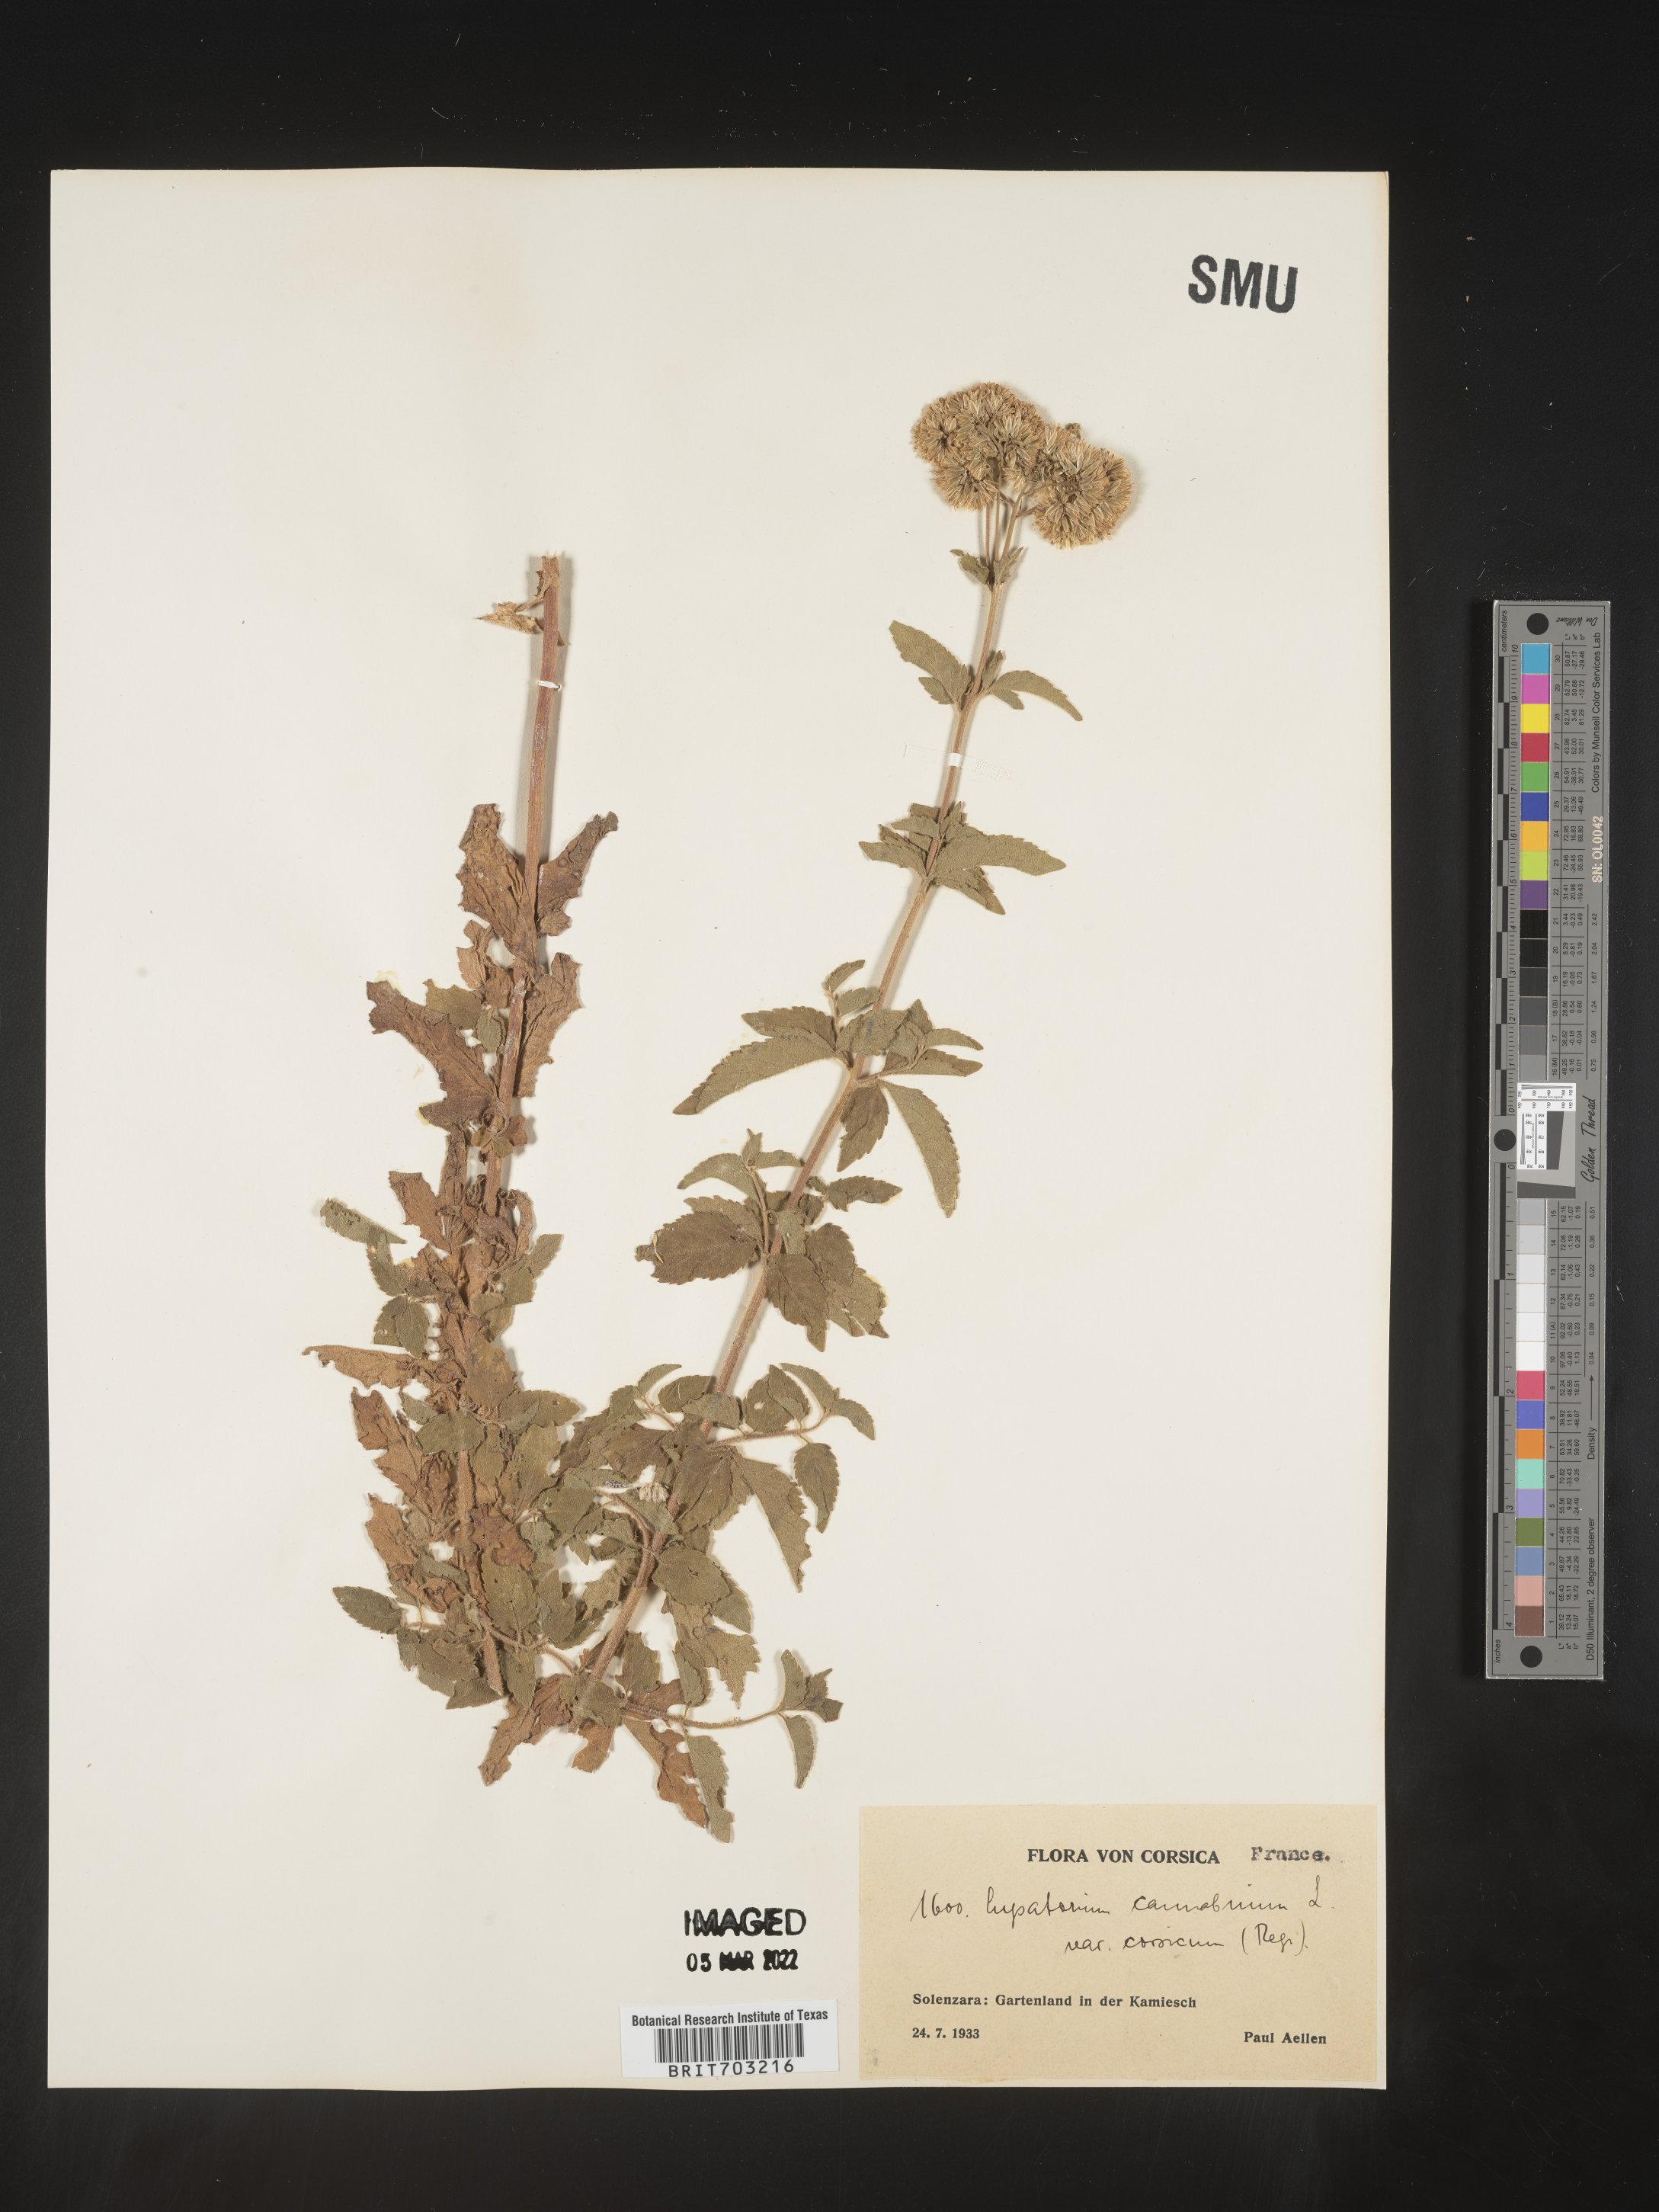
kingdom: Plantae
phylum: Tracheophyta
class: Magnoliopsida
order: Asterales
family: Asteraceae
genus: Eupatorium
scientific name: Eupatorium
